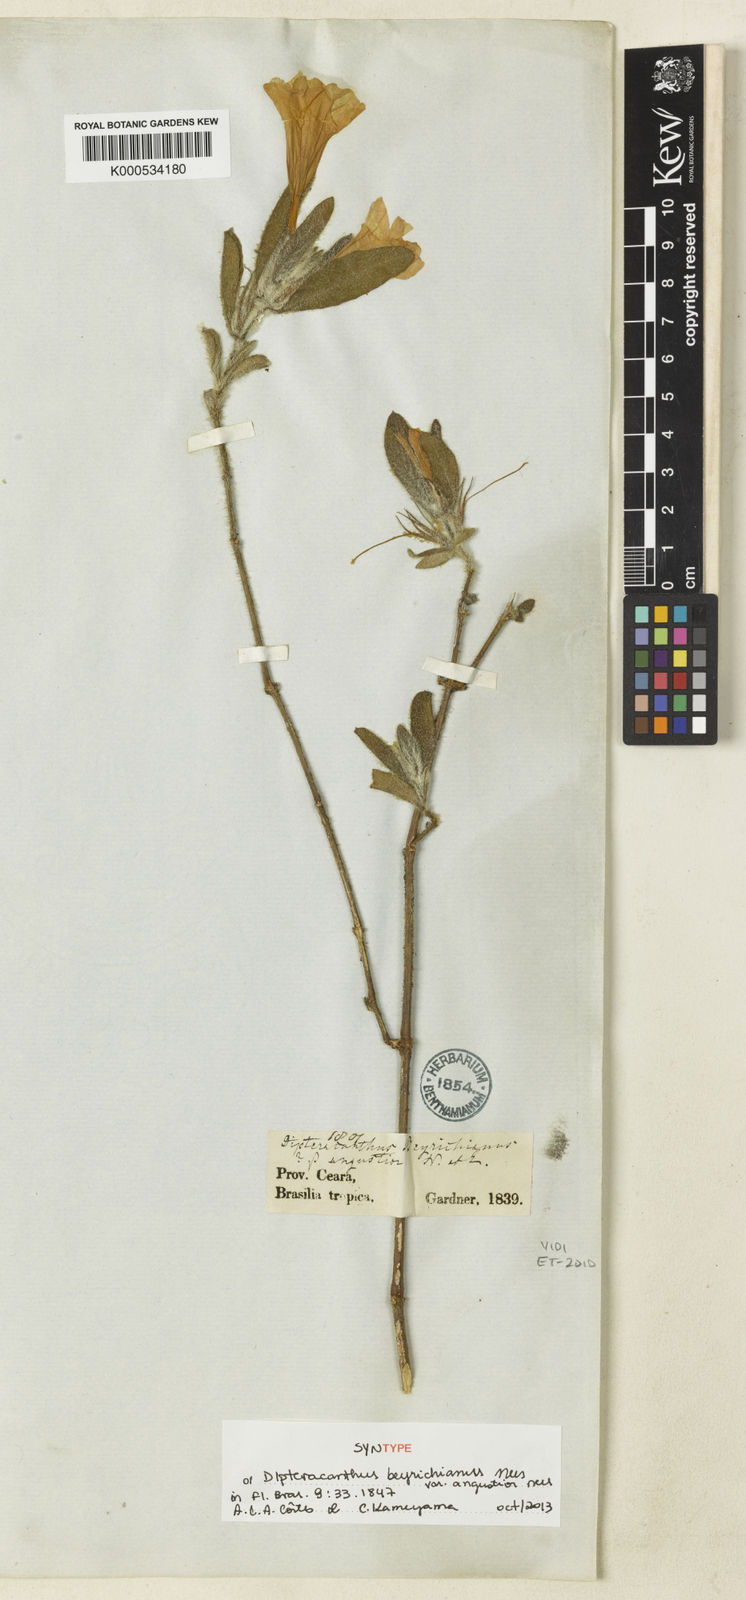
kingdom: Plantae
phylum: Tracheophyta
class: Magnoliopsida
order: Lamiales
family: Acanthaceae
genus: Ruellia
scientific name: Ruellia beyrichiana
